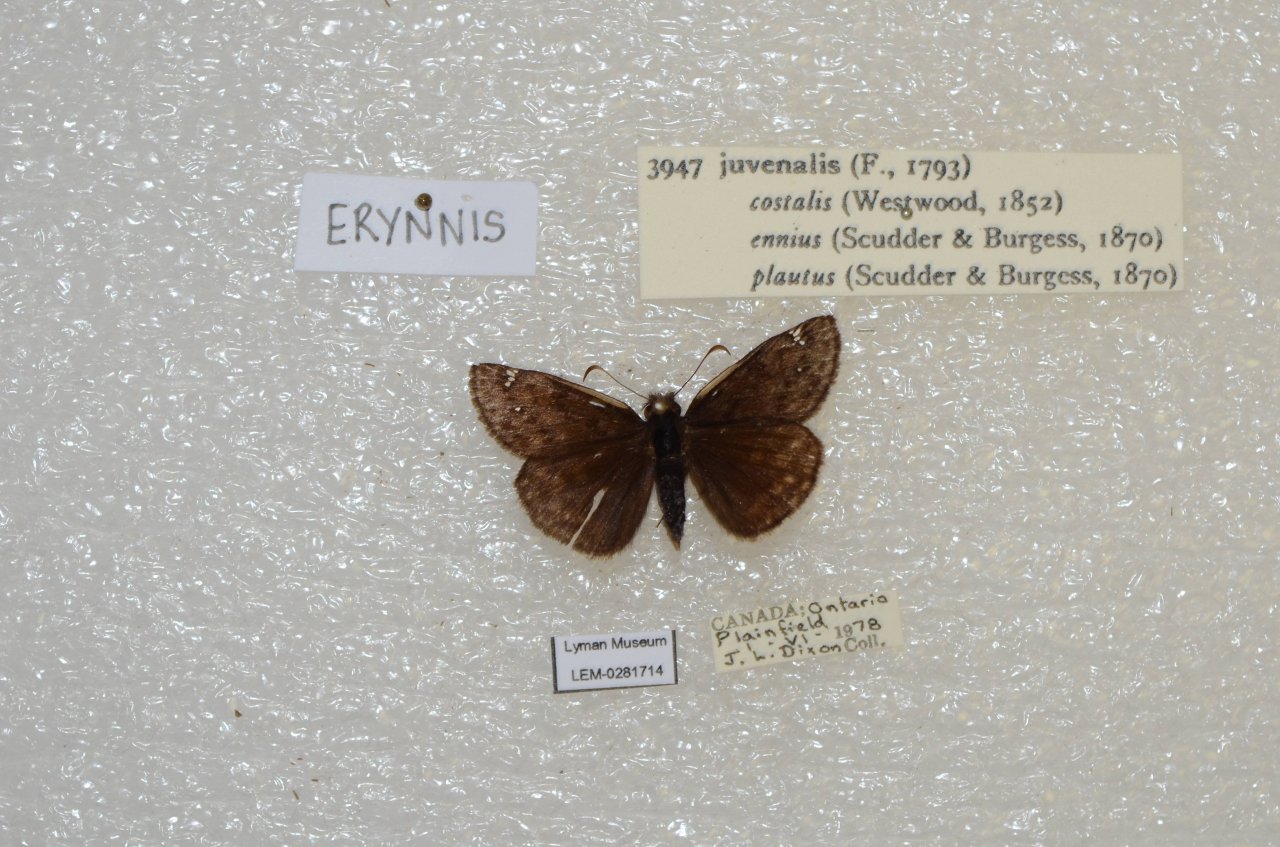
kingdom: Animalia
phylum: Arthropoda
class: Insecta
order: Lepidoptera
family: Hesperiidae
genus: Gesta
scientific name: Gesta
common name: Juvenal's Duskywing
